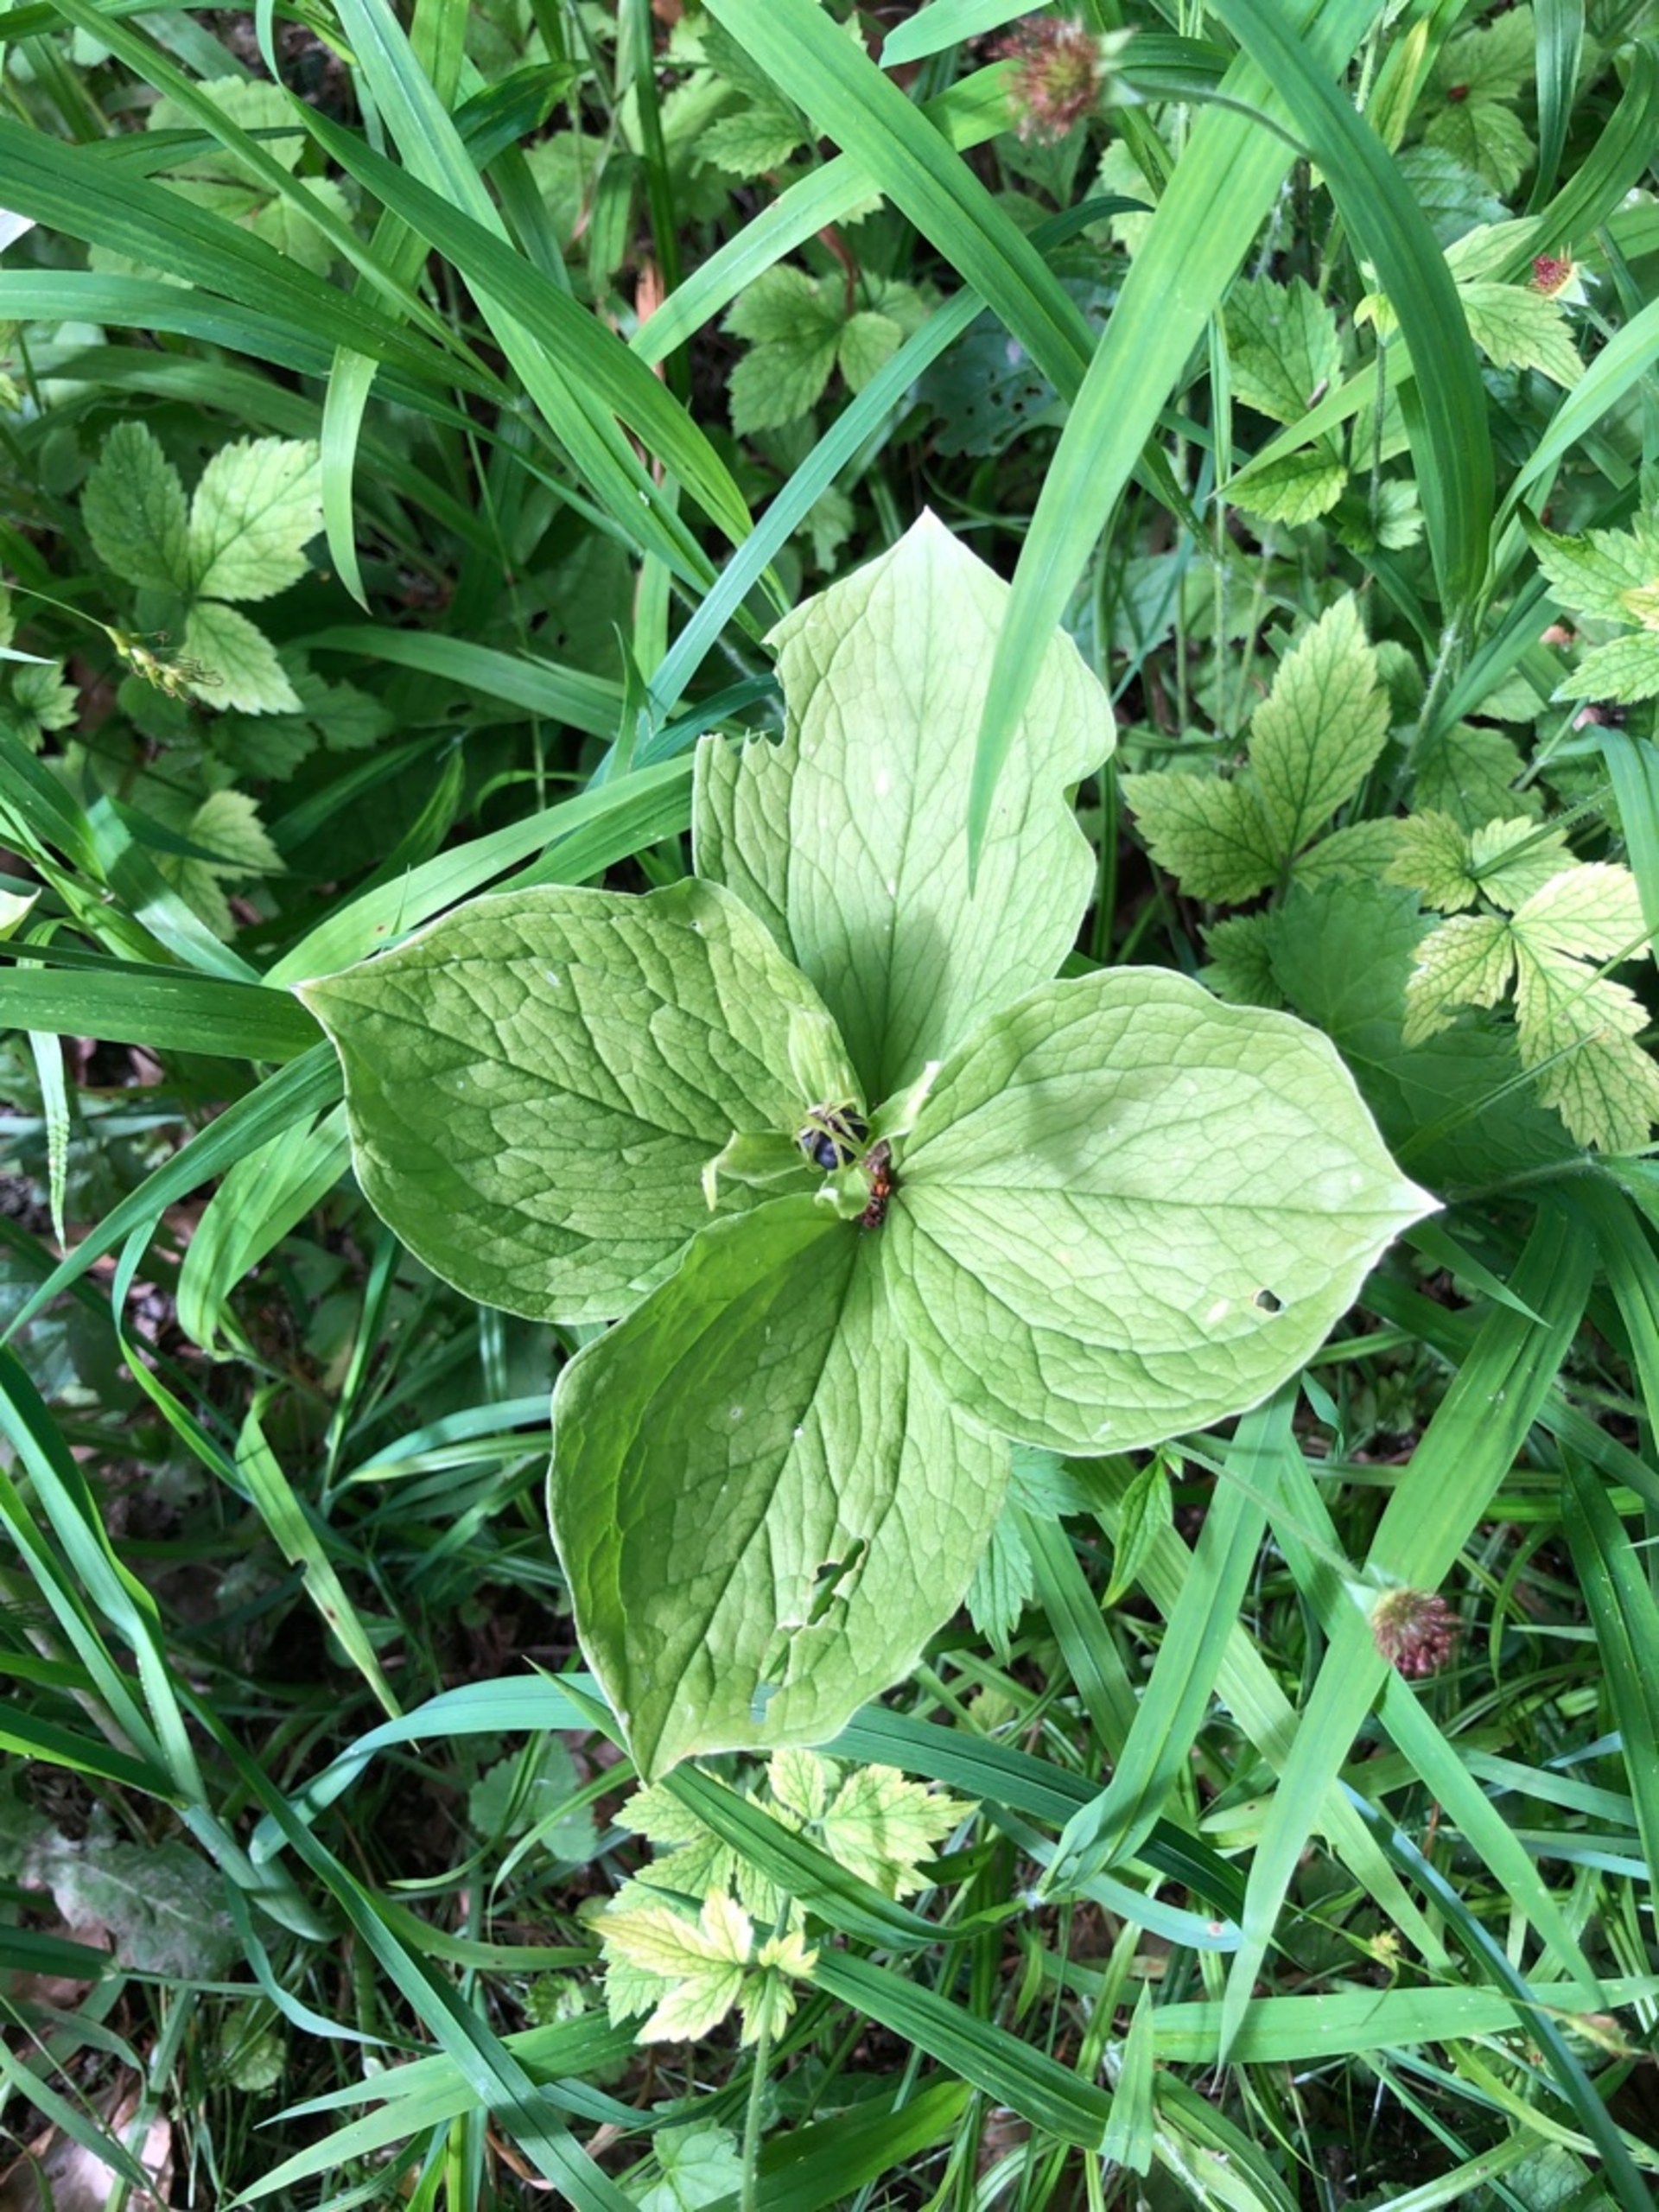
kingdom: Plantae
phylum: Tracheophyta
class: Liliopsida
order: Liliales
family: Melanthiaceae
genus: Paris
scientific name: Paris quadrifolia
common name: Firblad
